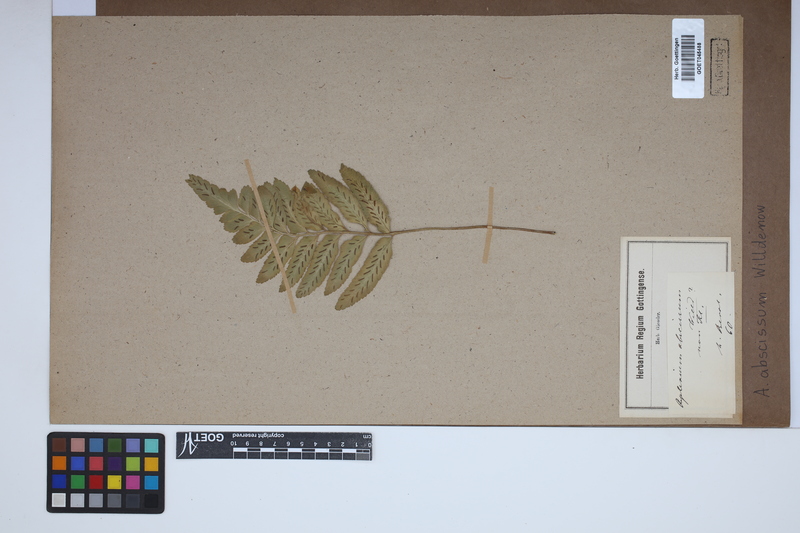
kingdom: Plantae
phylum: Tracheophyta
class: Polypodiopsida
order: Polypodiales
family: Aspleniaceae
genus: Asplenium
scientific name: Asplenium abscissum
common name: Cutleaf spleenwort
